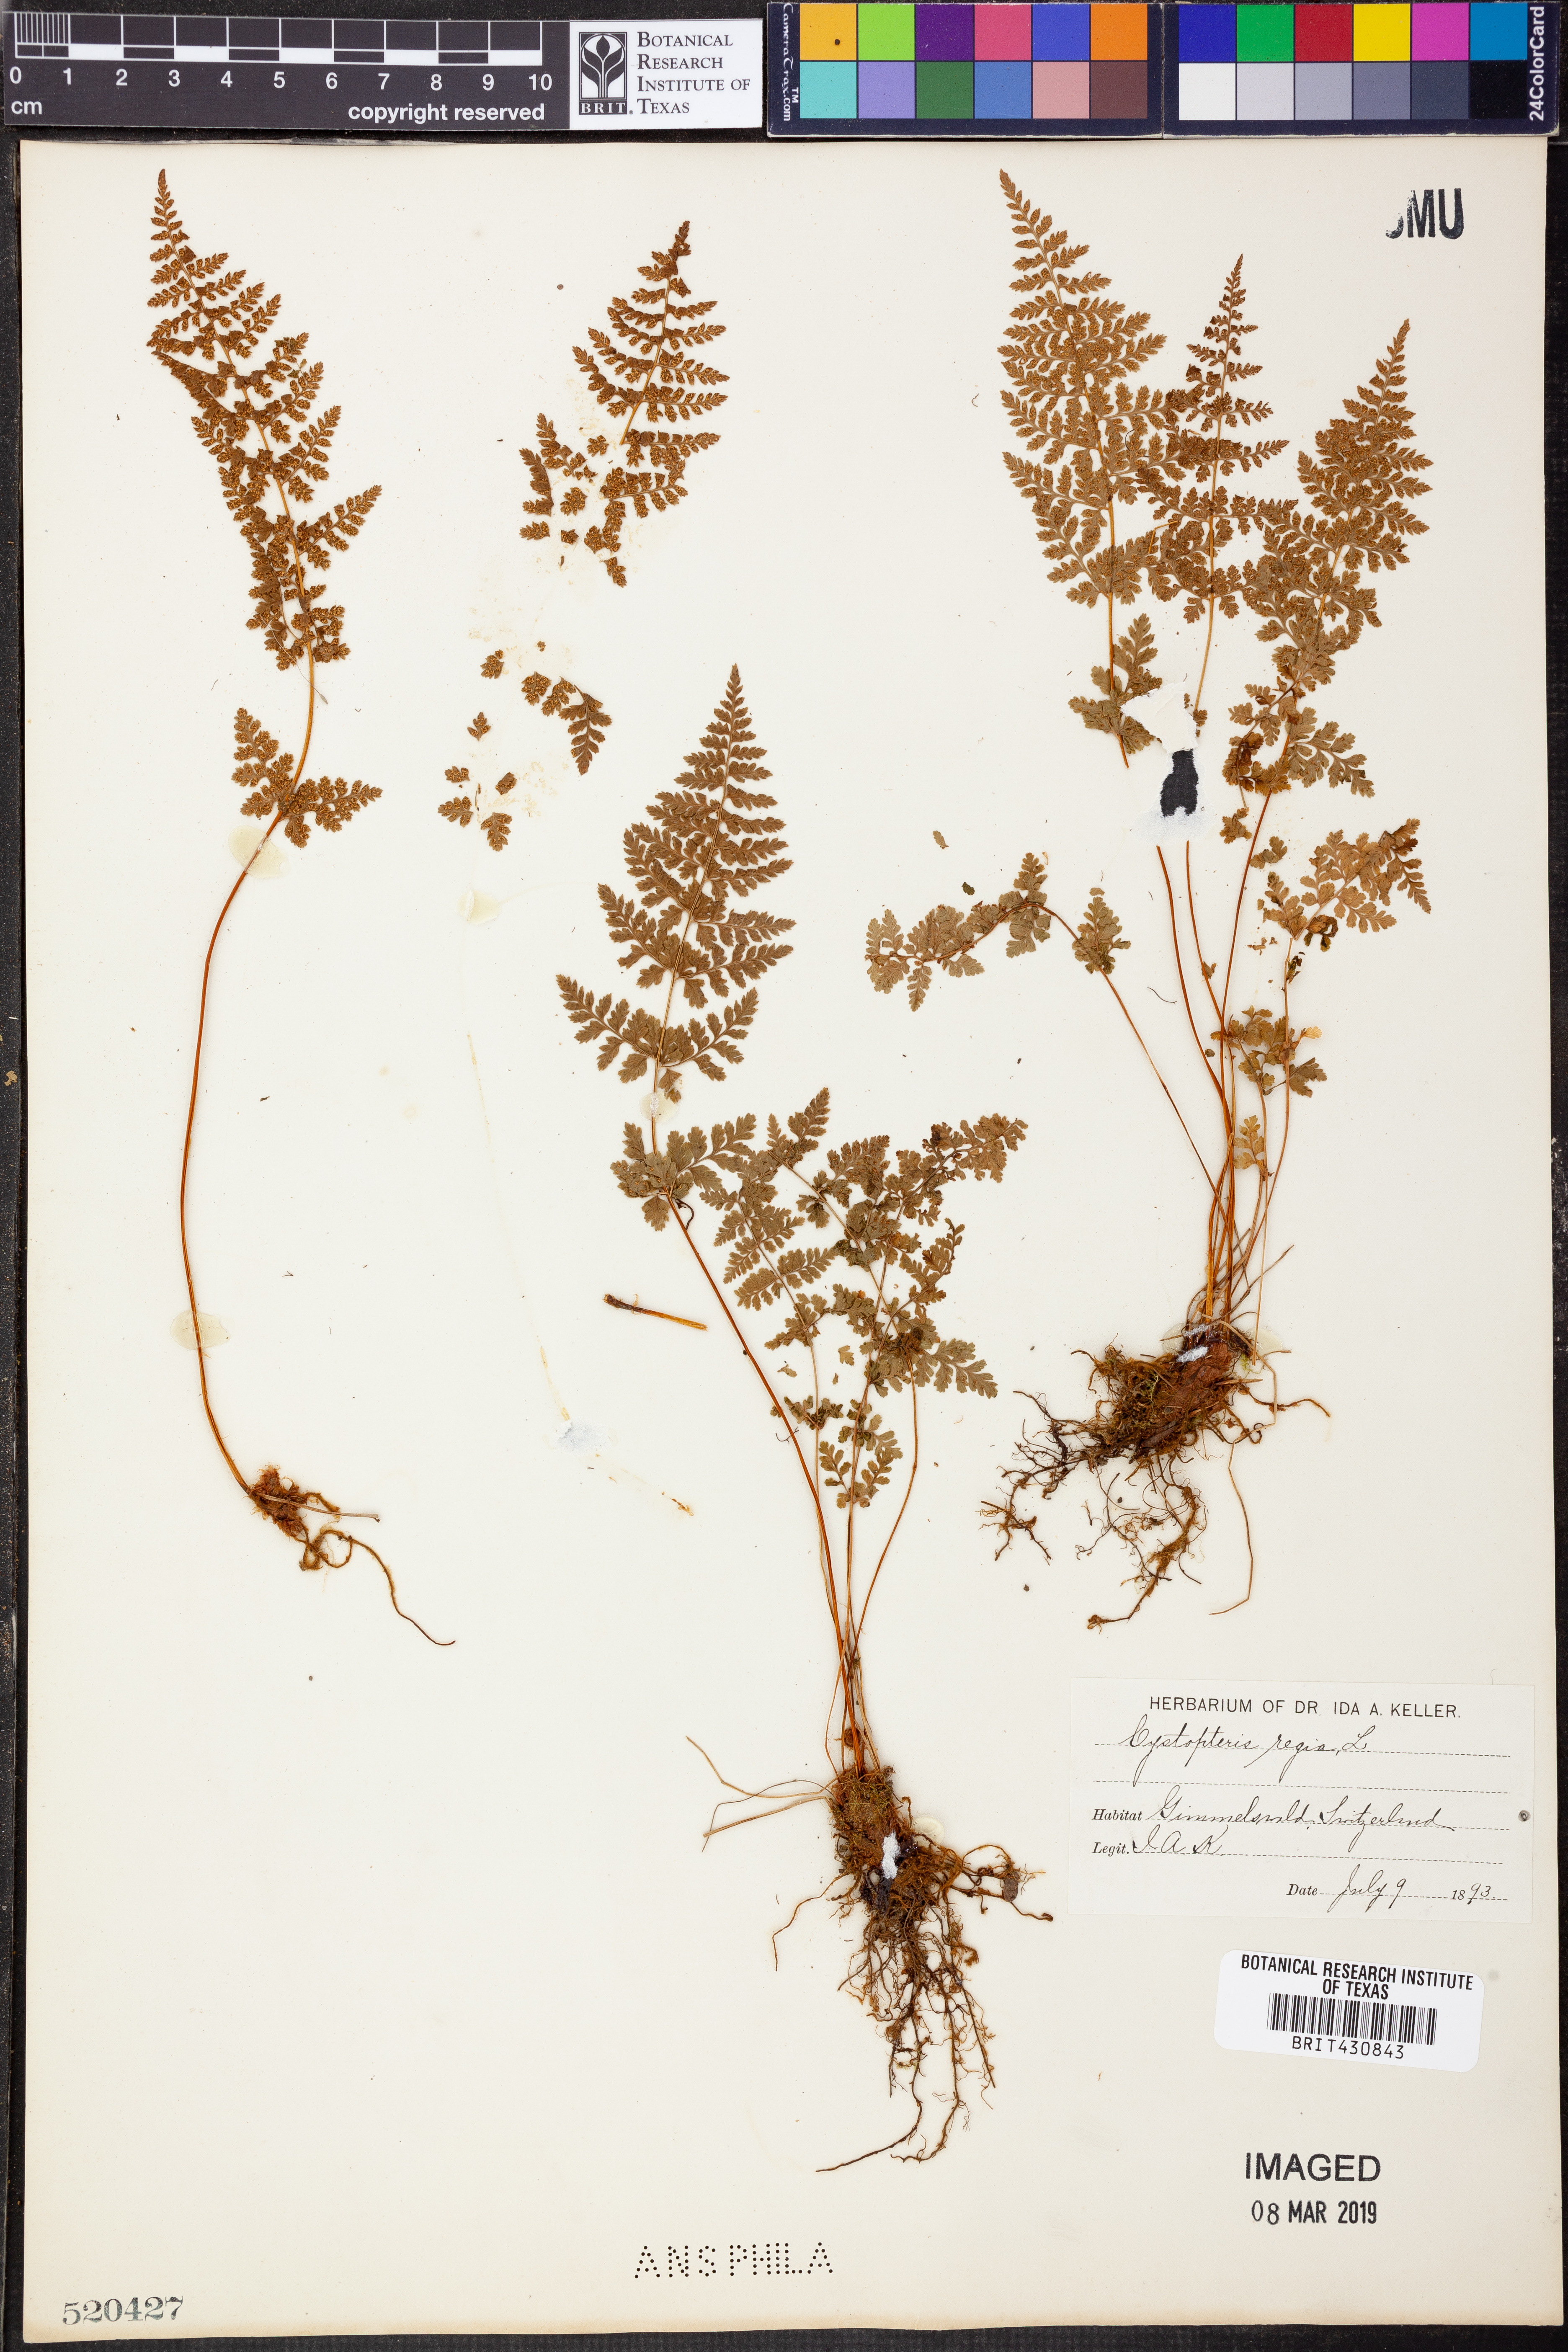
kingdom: Plantae
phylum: Tracheophyta
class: Polypodiopsida
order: Polypodiales
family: Cystopteridaceae
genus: Cystopteris
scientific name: Cystopteris fragilis
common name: Brittle bladder fern
